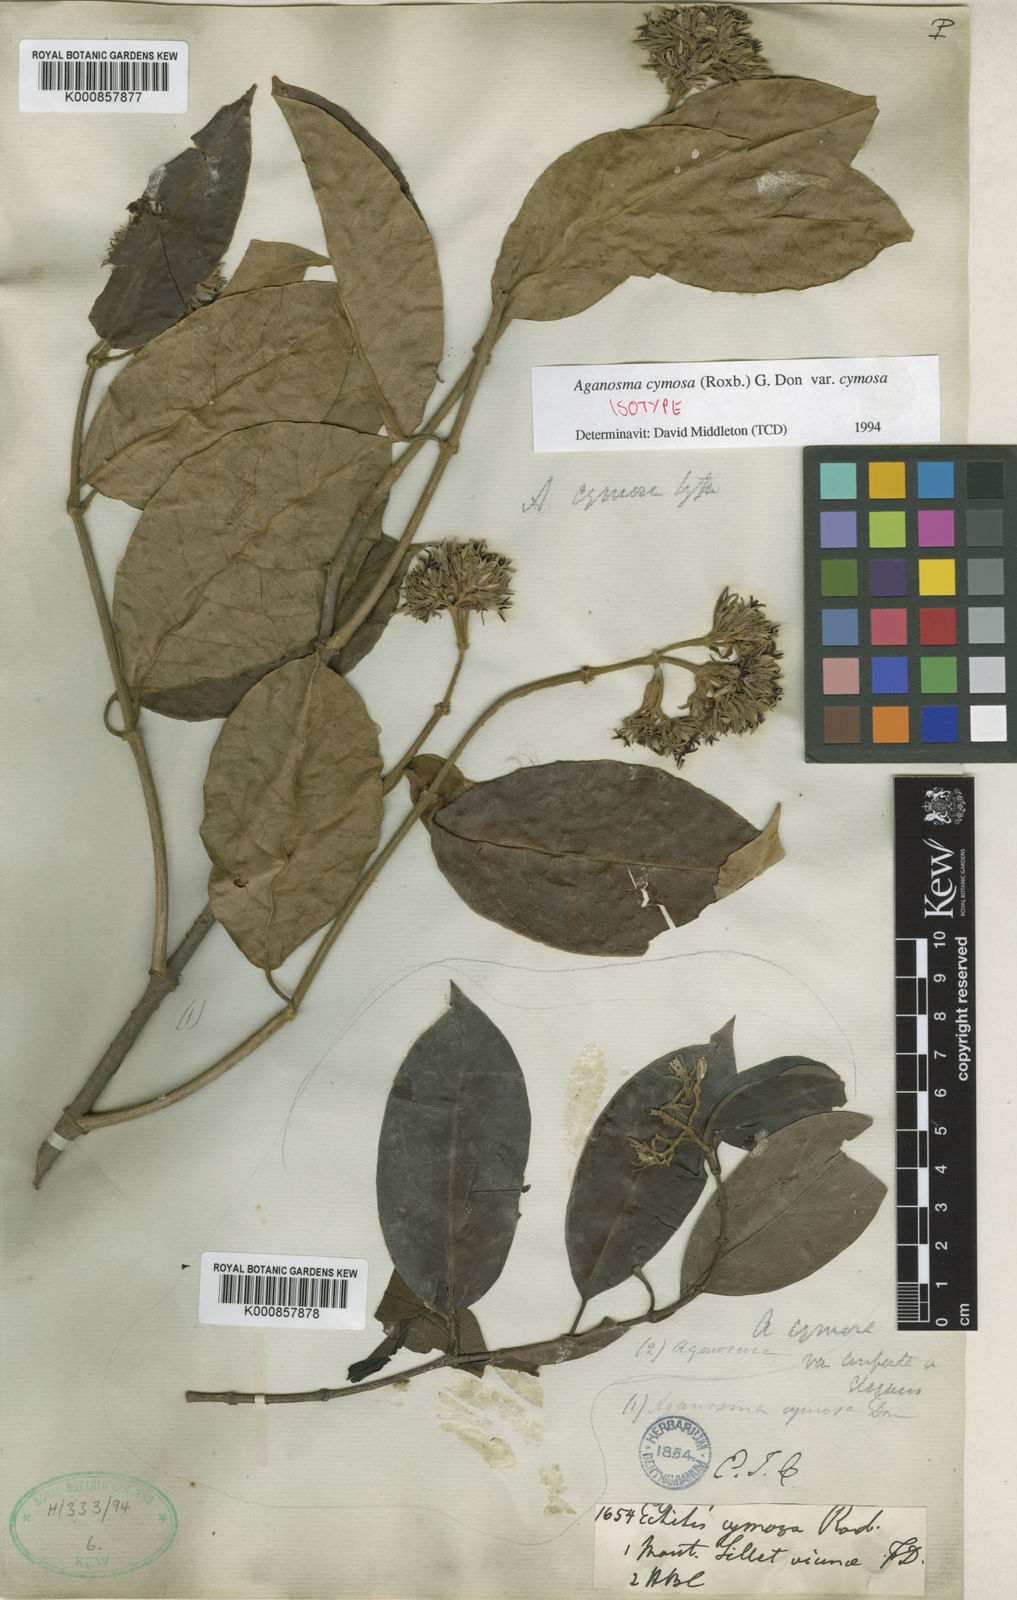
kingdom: Plantae
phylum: Tracheophyta
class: Magnoliopsida
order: Gentianales
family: Apocynaceae
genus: Aganosma
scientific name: Aganosma cymosa
